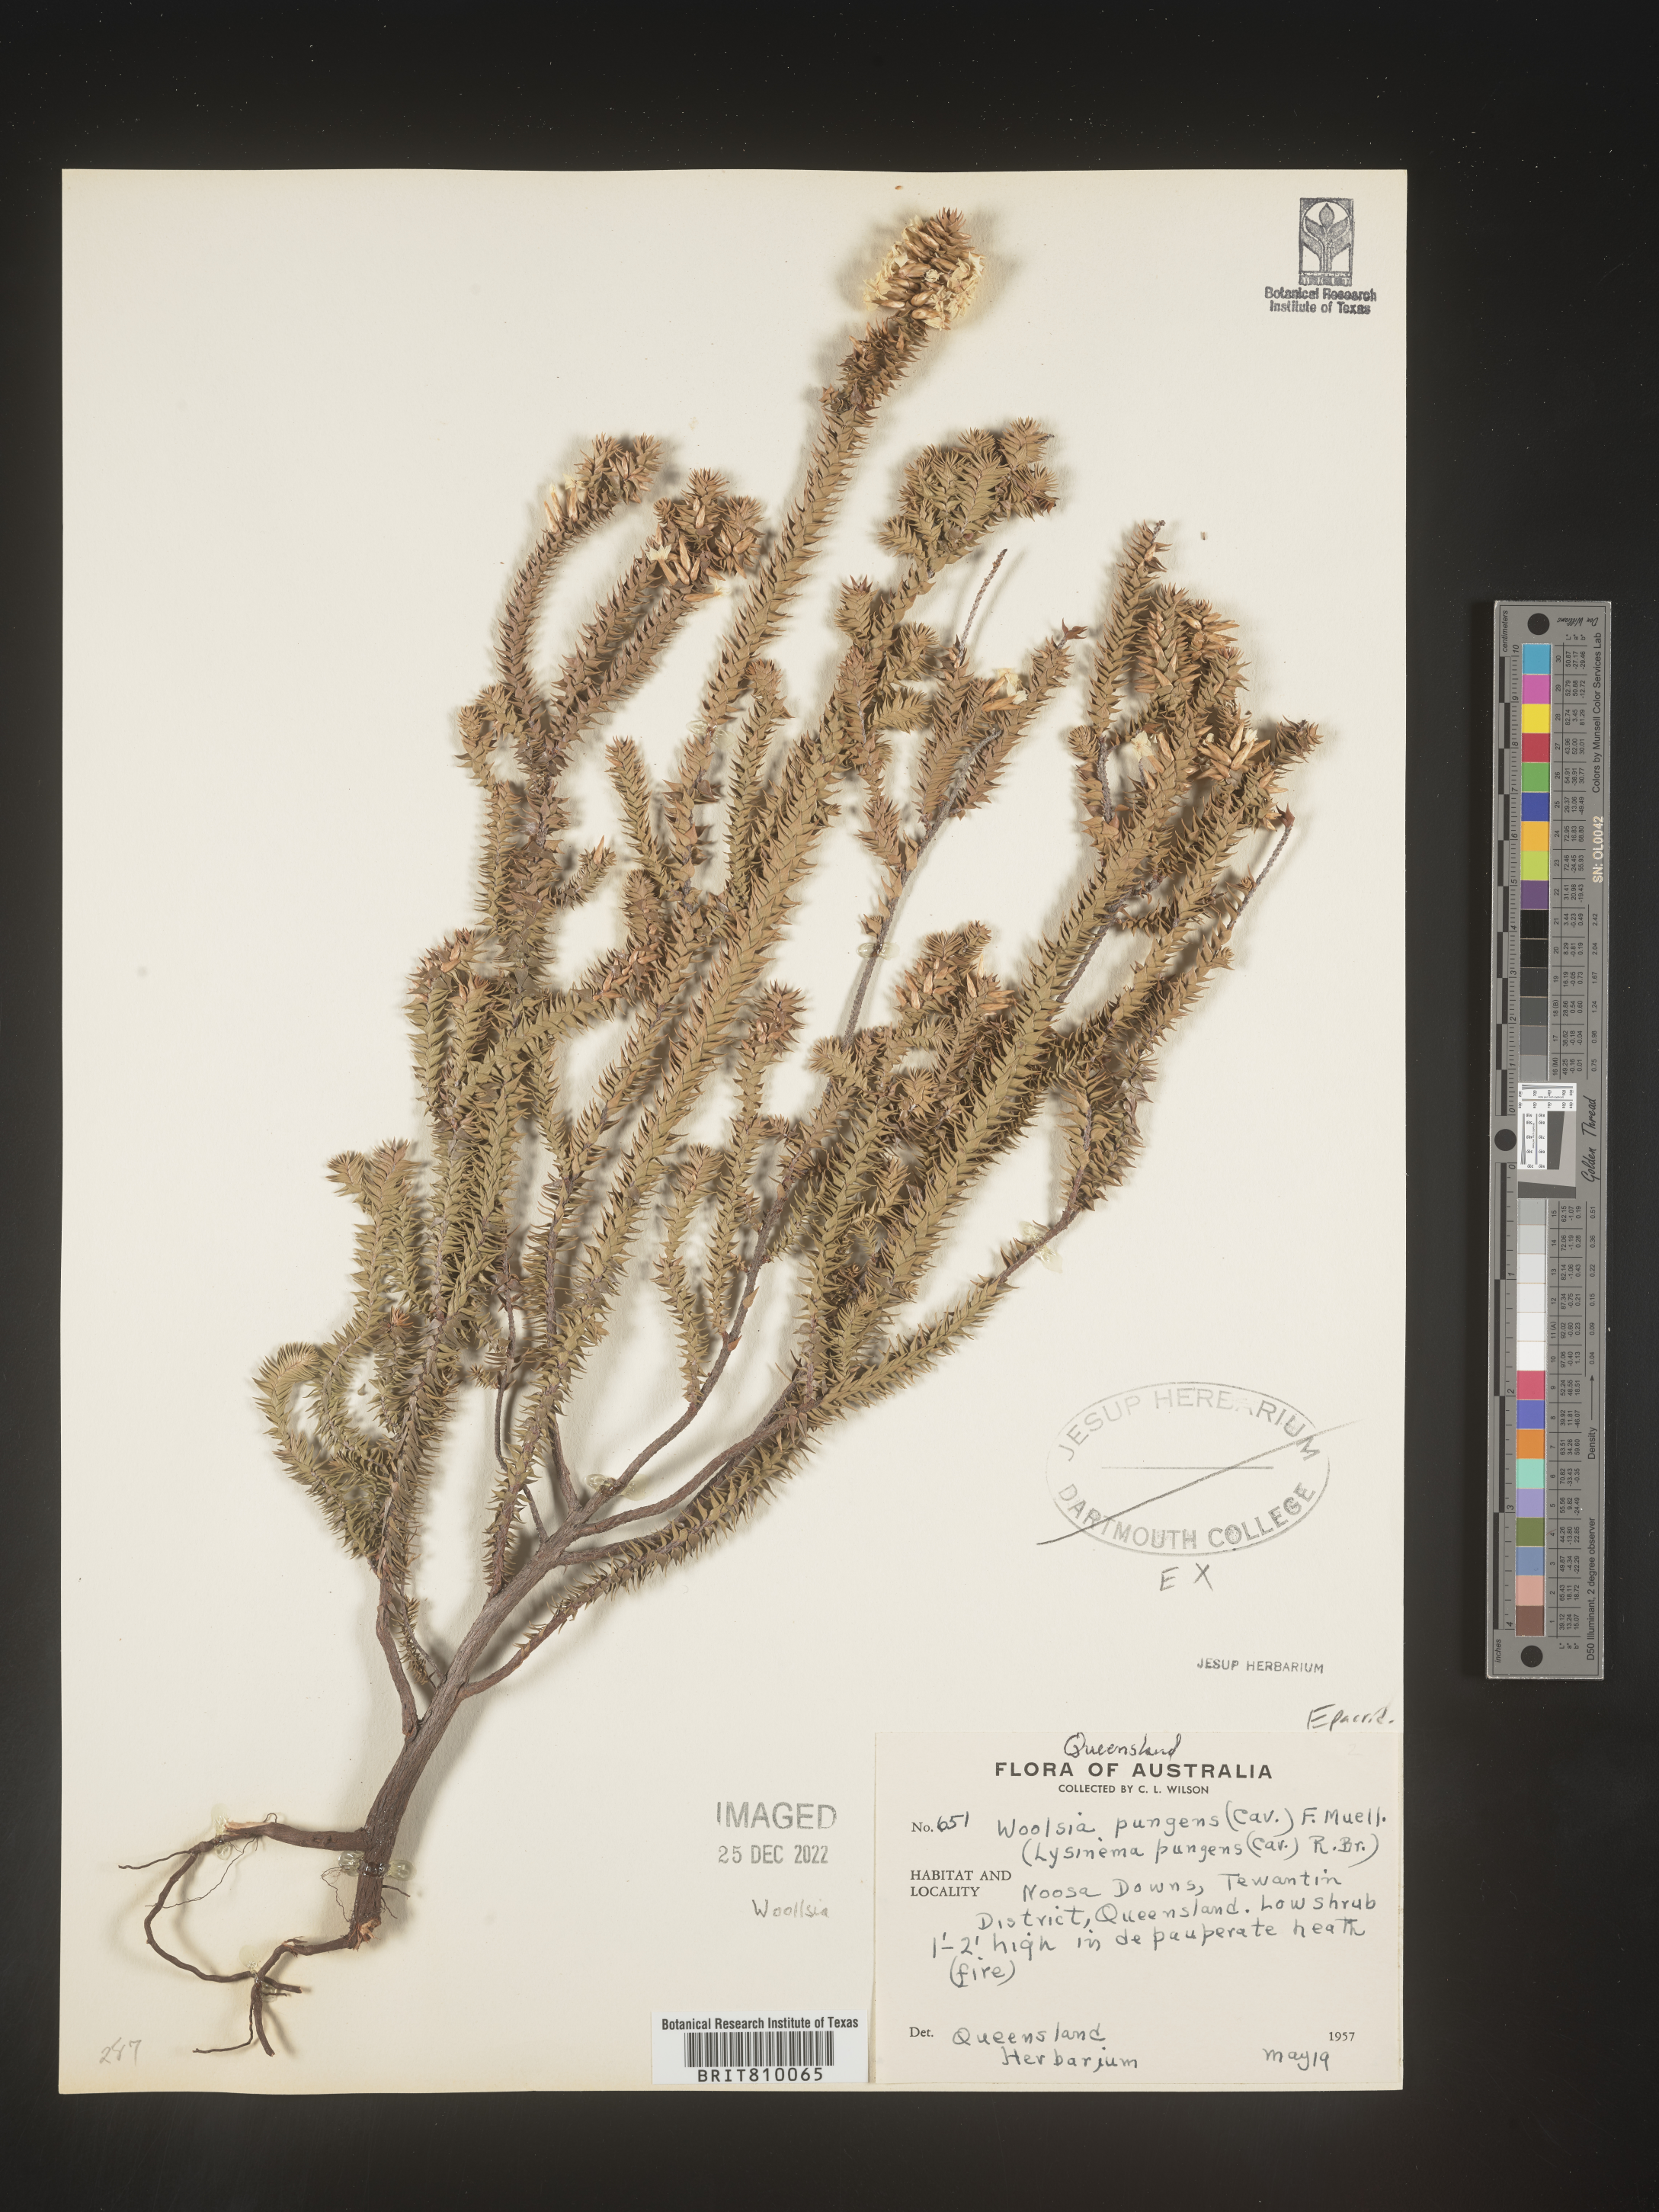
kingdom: Plantae
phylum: Tracheophyta
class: Magnoliopsida
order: Ericales
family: Ericaceae
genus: Woollsia
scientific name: Woollsia
